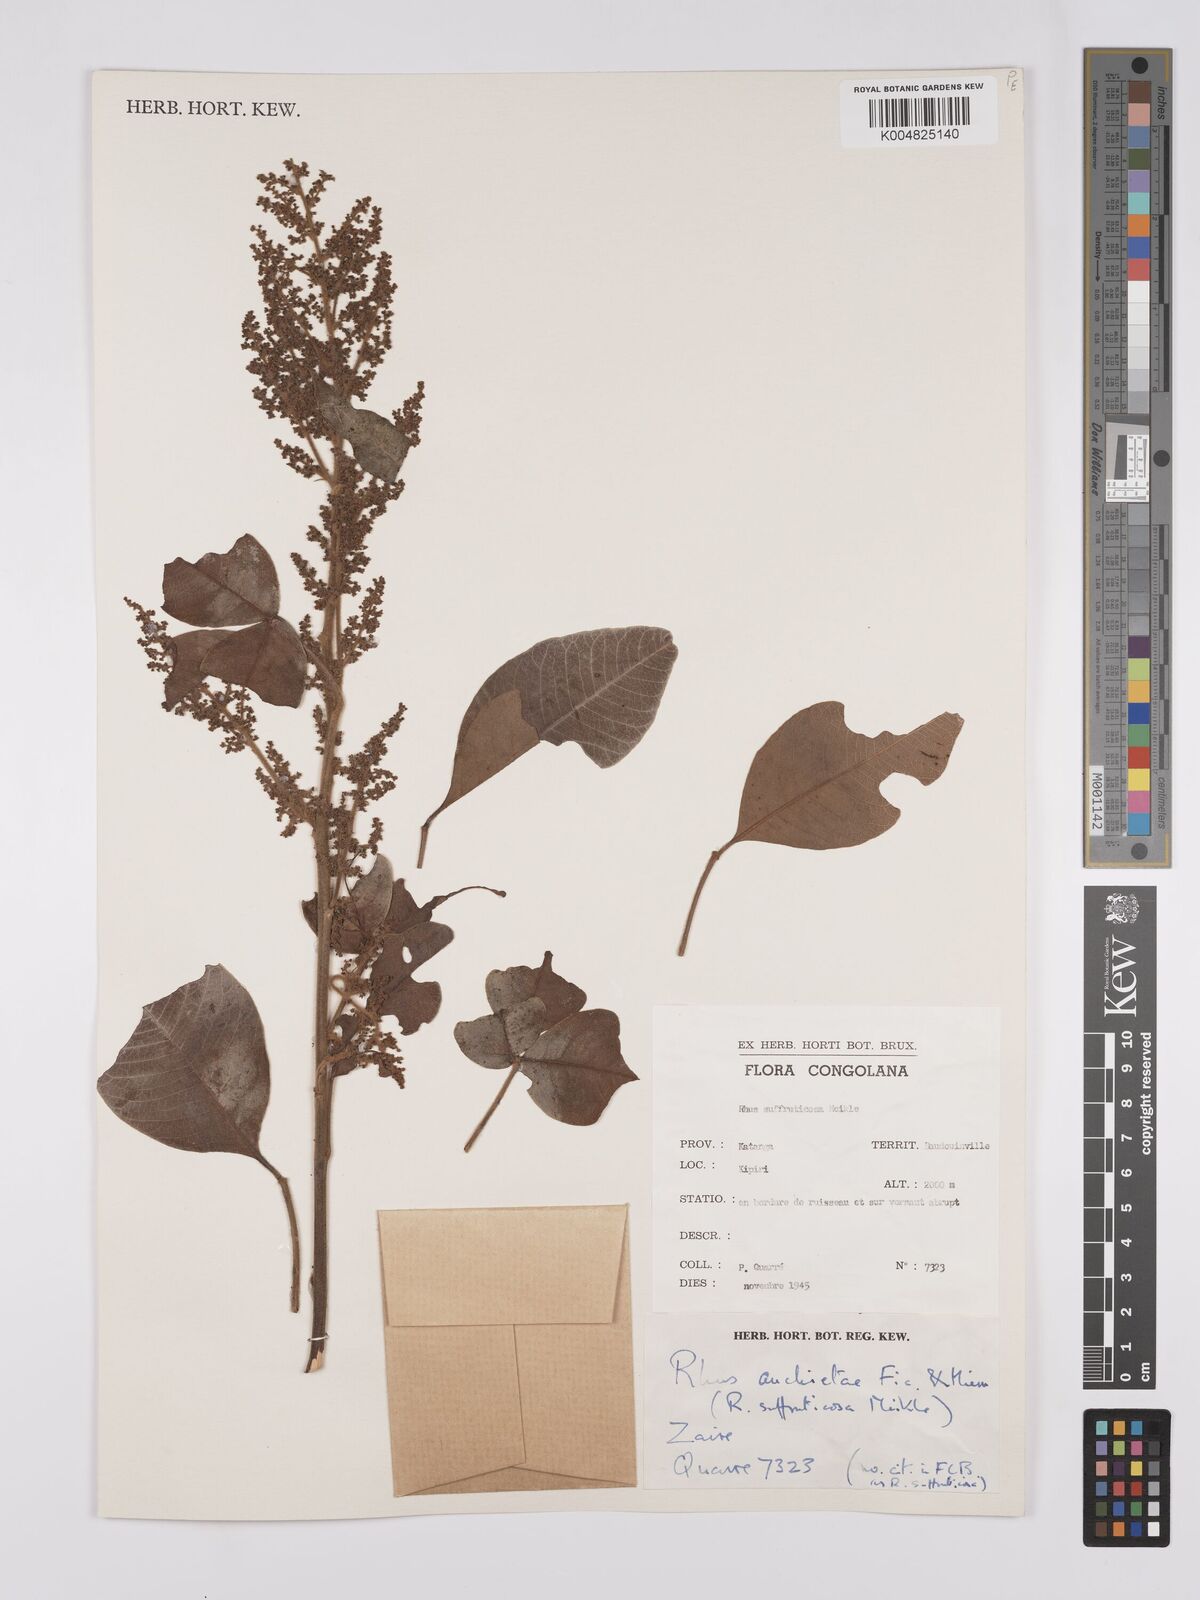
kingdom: Plantae
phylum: Tracheophyta
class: Magnoliopsida
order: Sapindales
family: Anacardiaceae
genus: Searsia
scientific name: Searsia anchietae
